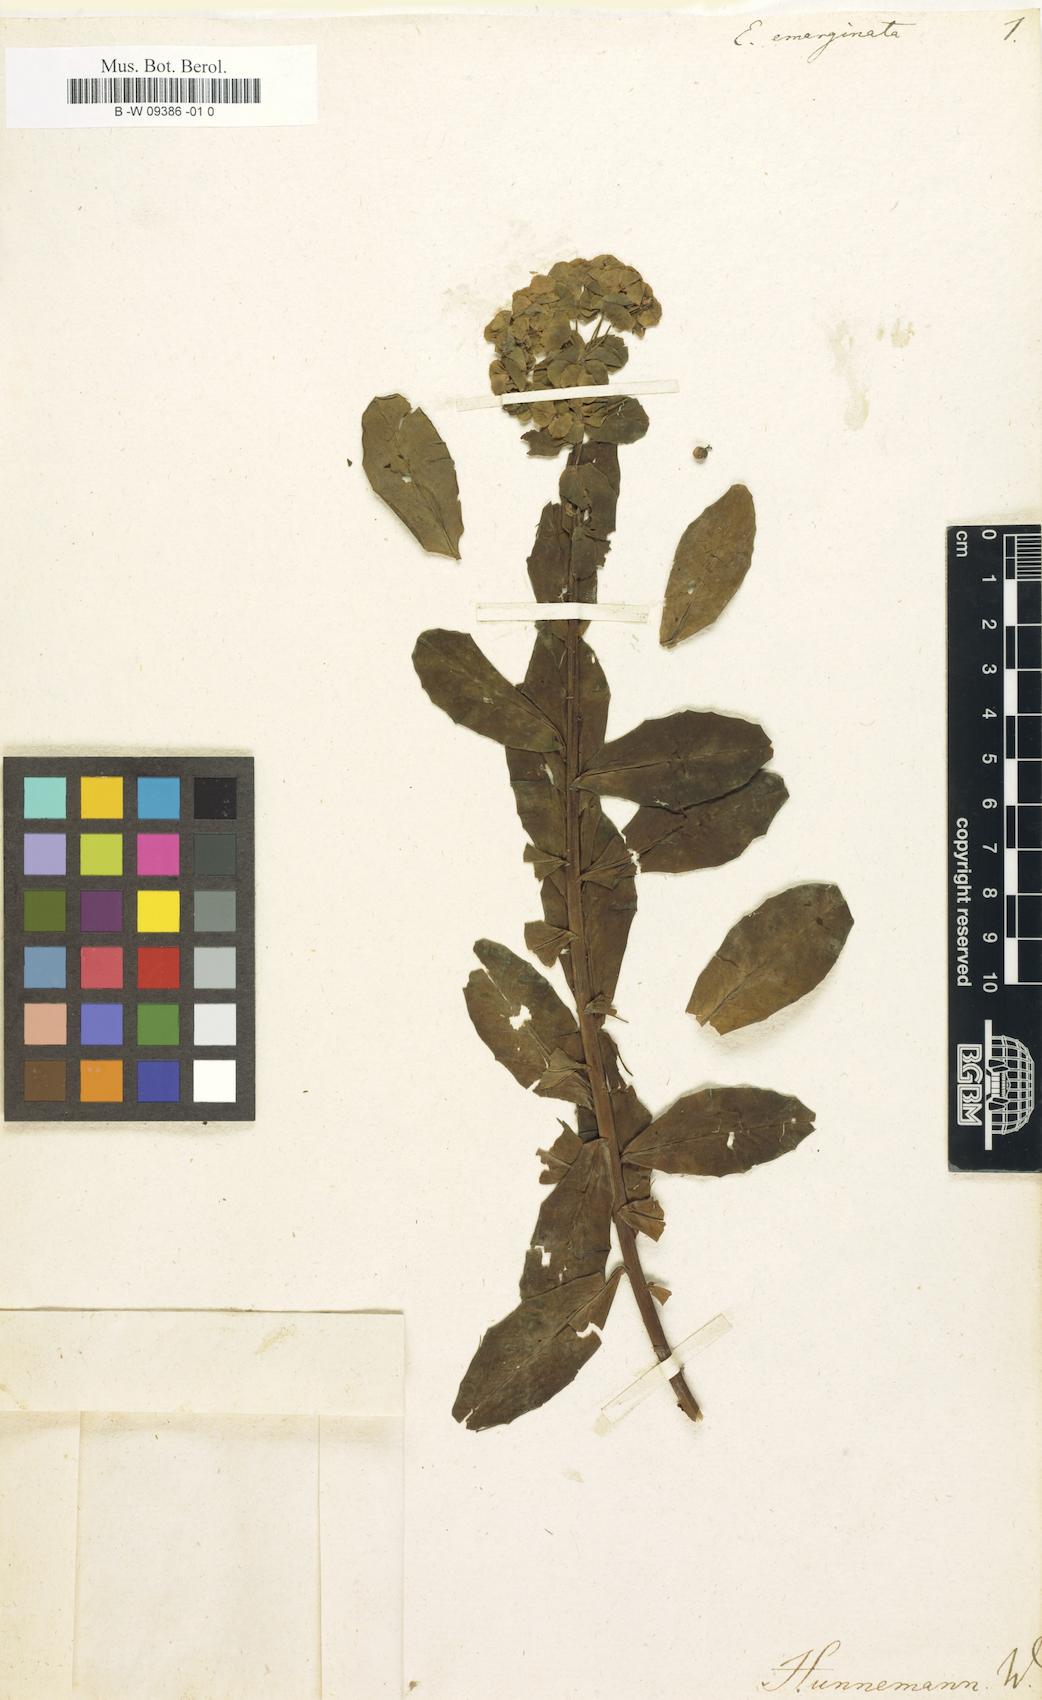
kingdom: Plantae
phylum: Tracheophyta
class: Magnoliopsida
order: Malpighiales
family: Euphorbiaceae
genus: Euphorbia
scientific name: Euphorbia
